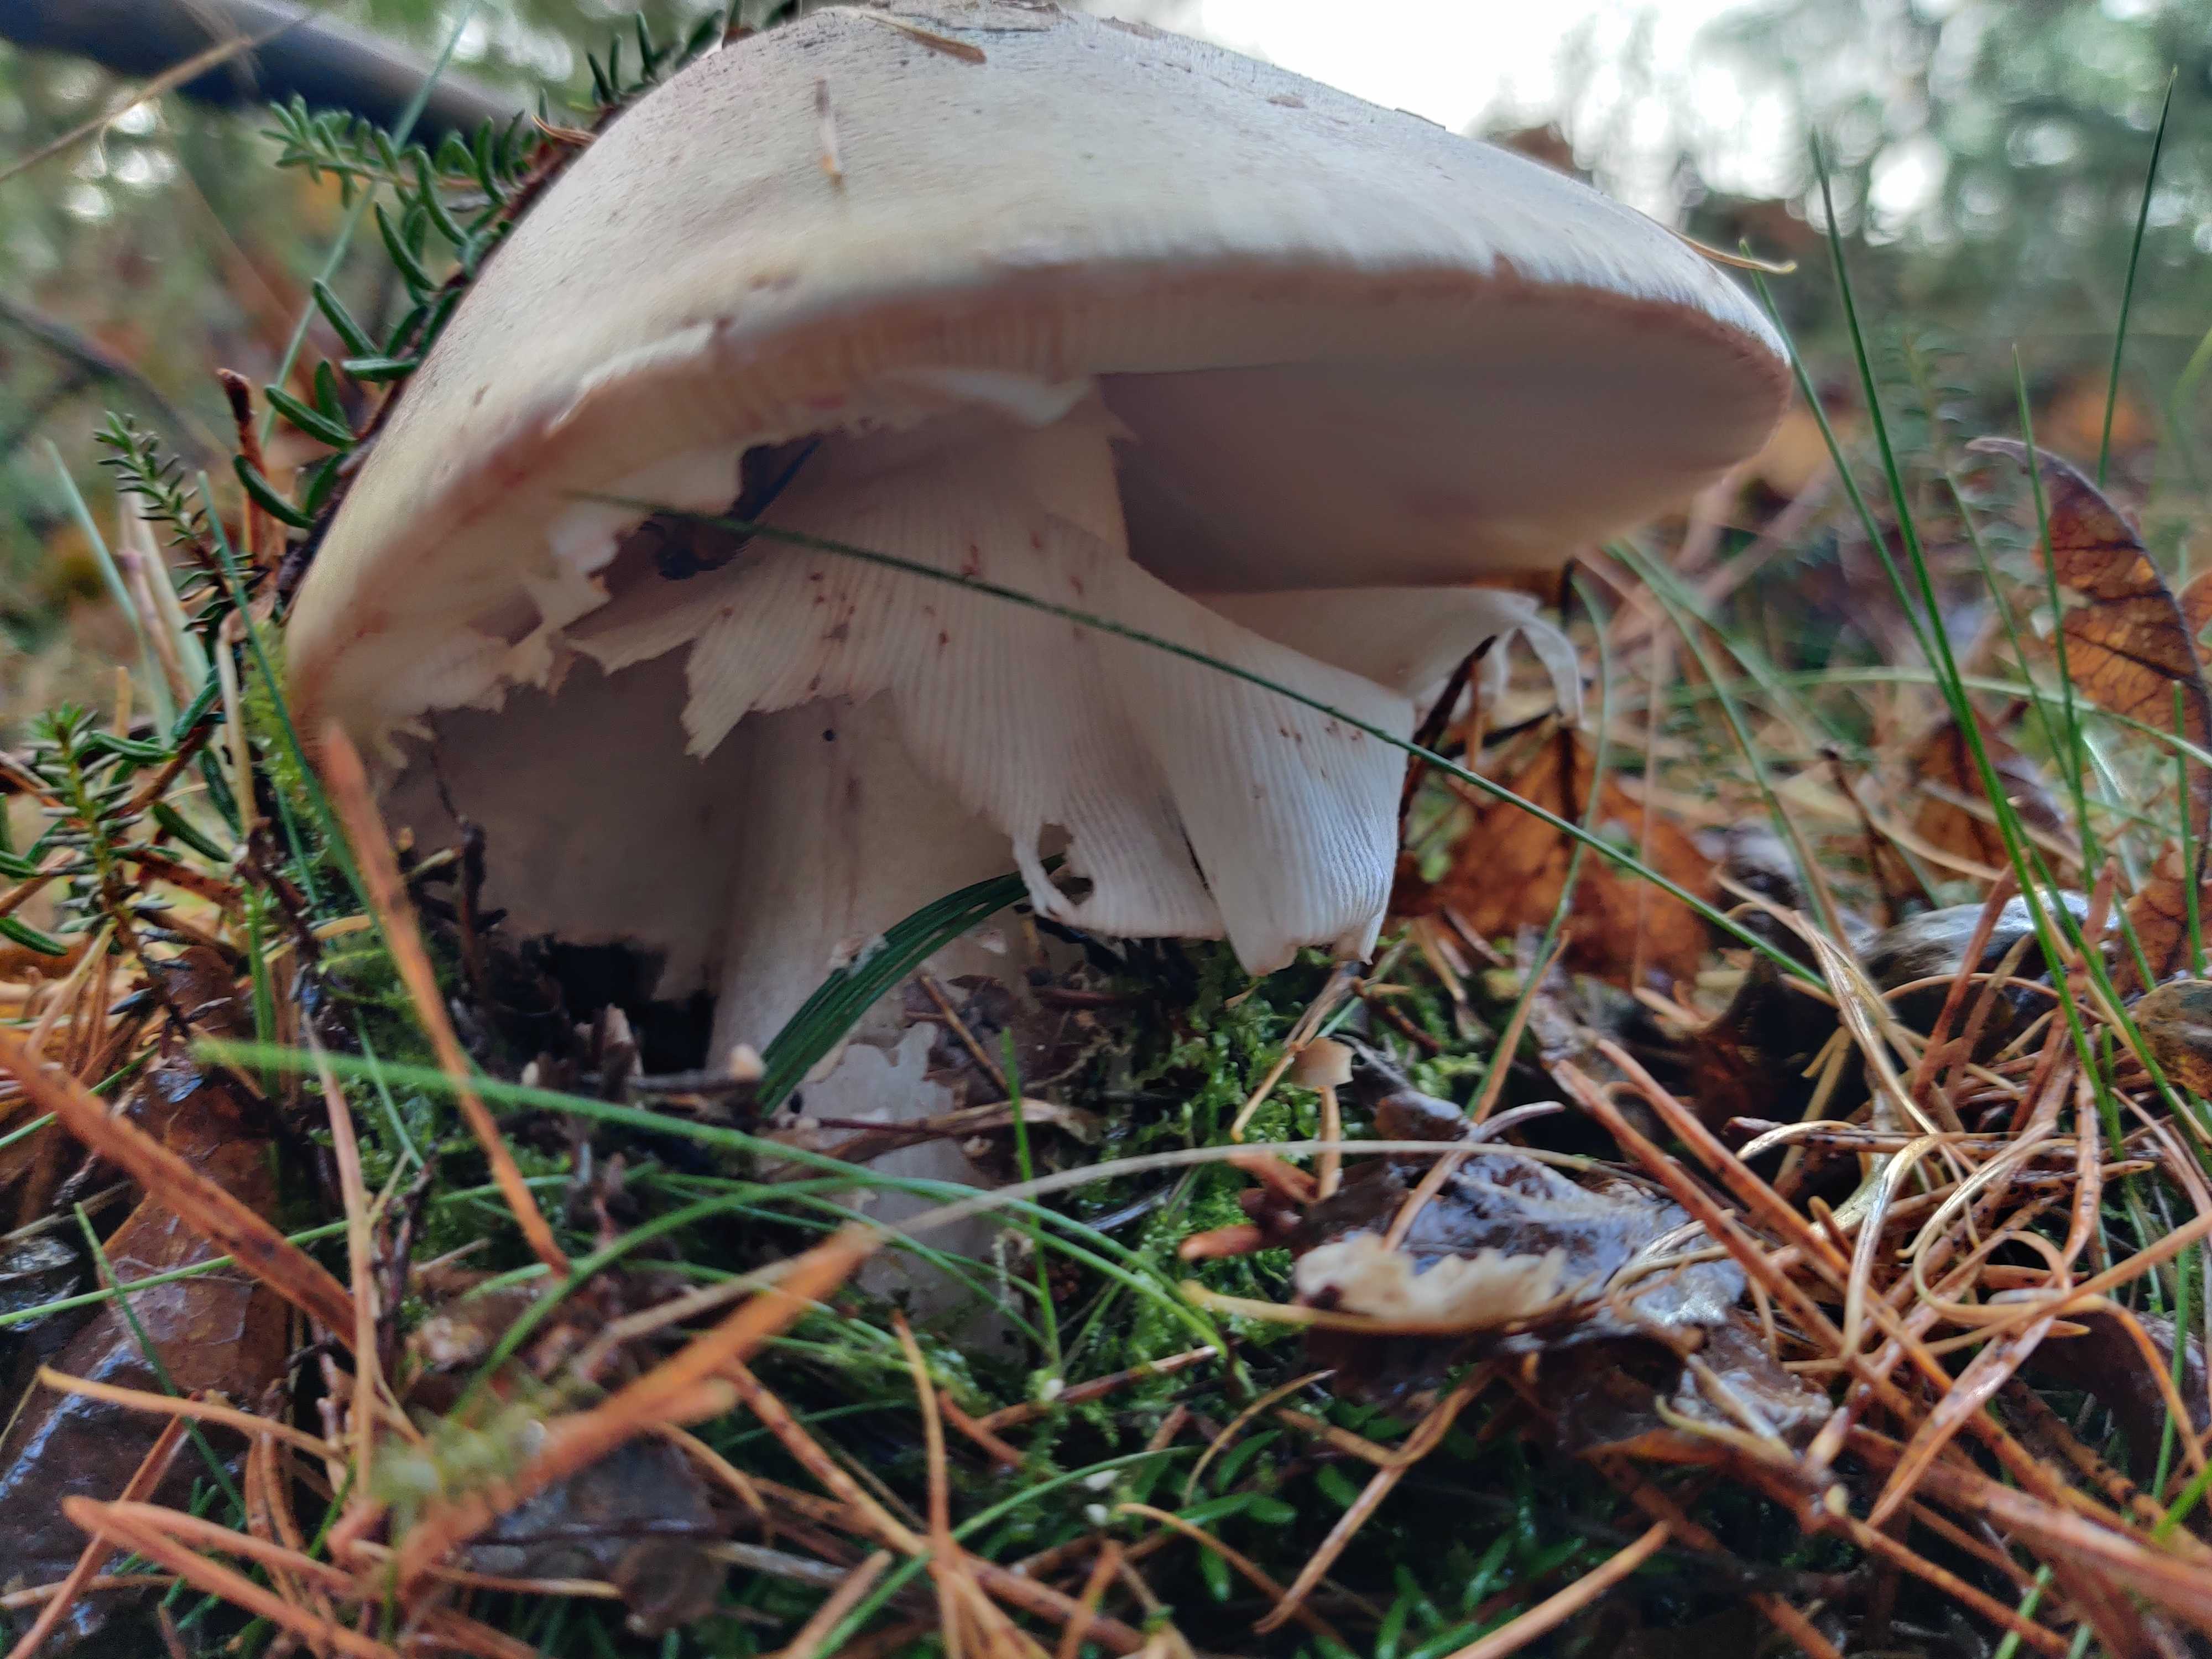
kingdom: Fungi
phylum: Basidiomycota
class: Agaricomycetes
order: Agaricales
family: Amanitaceae
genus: Amanita
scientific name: Amanita rubescens
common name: rødmende fluesvamp
